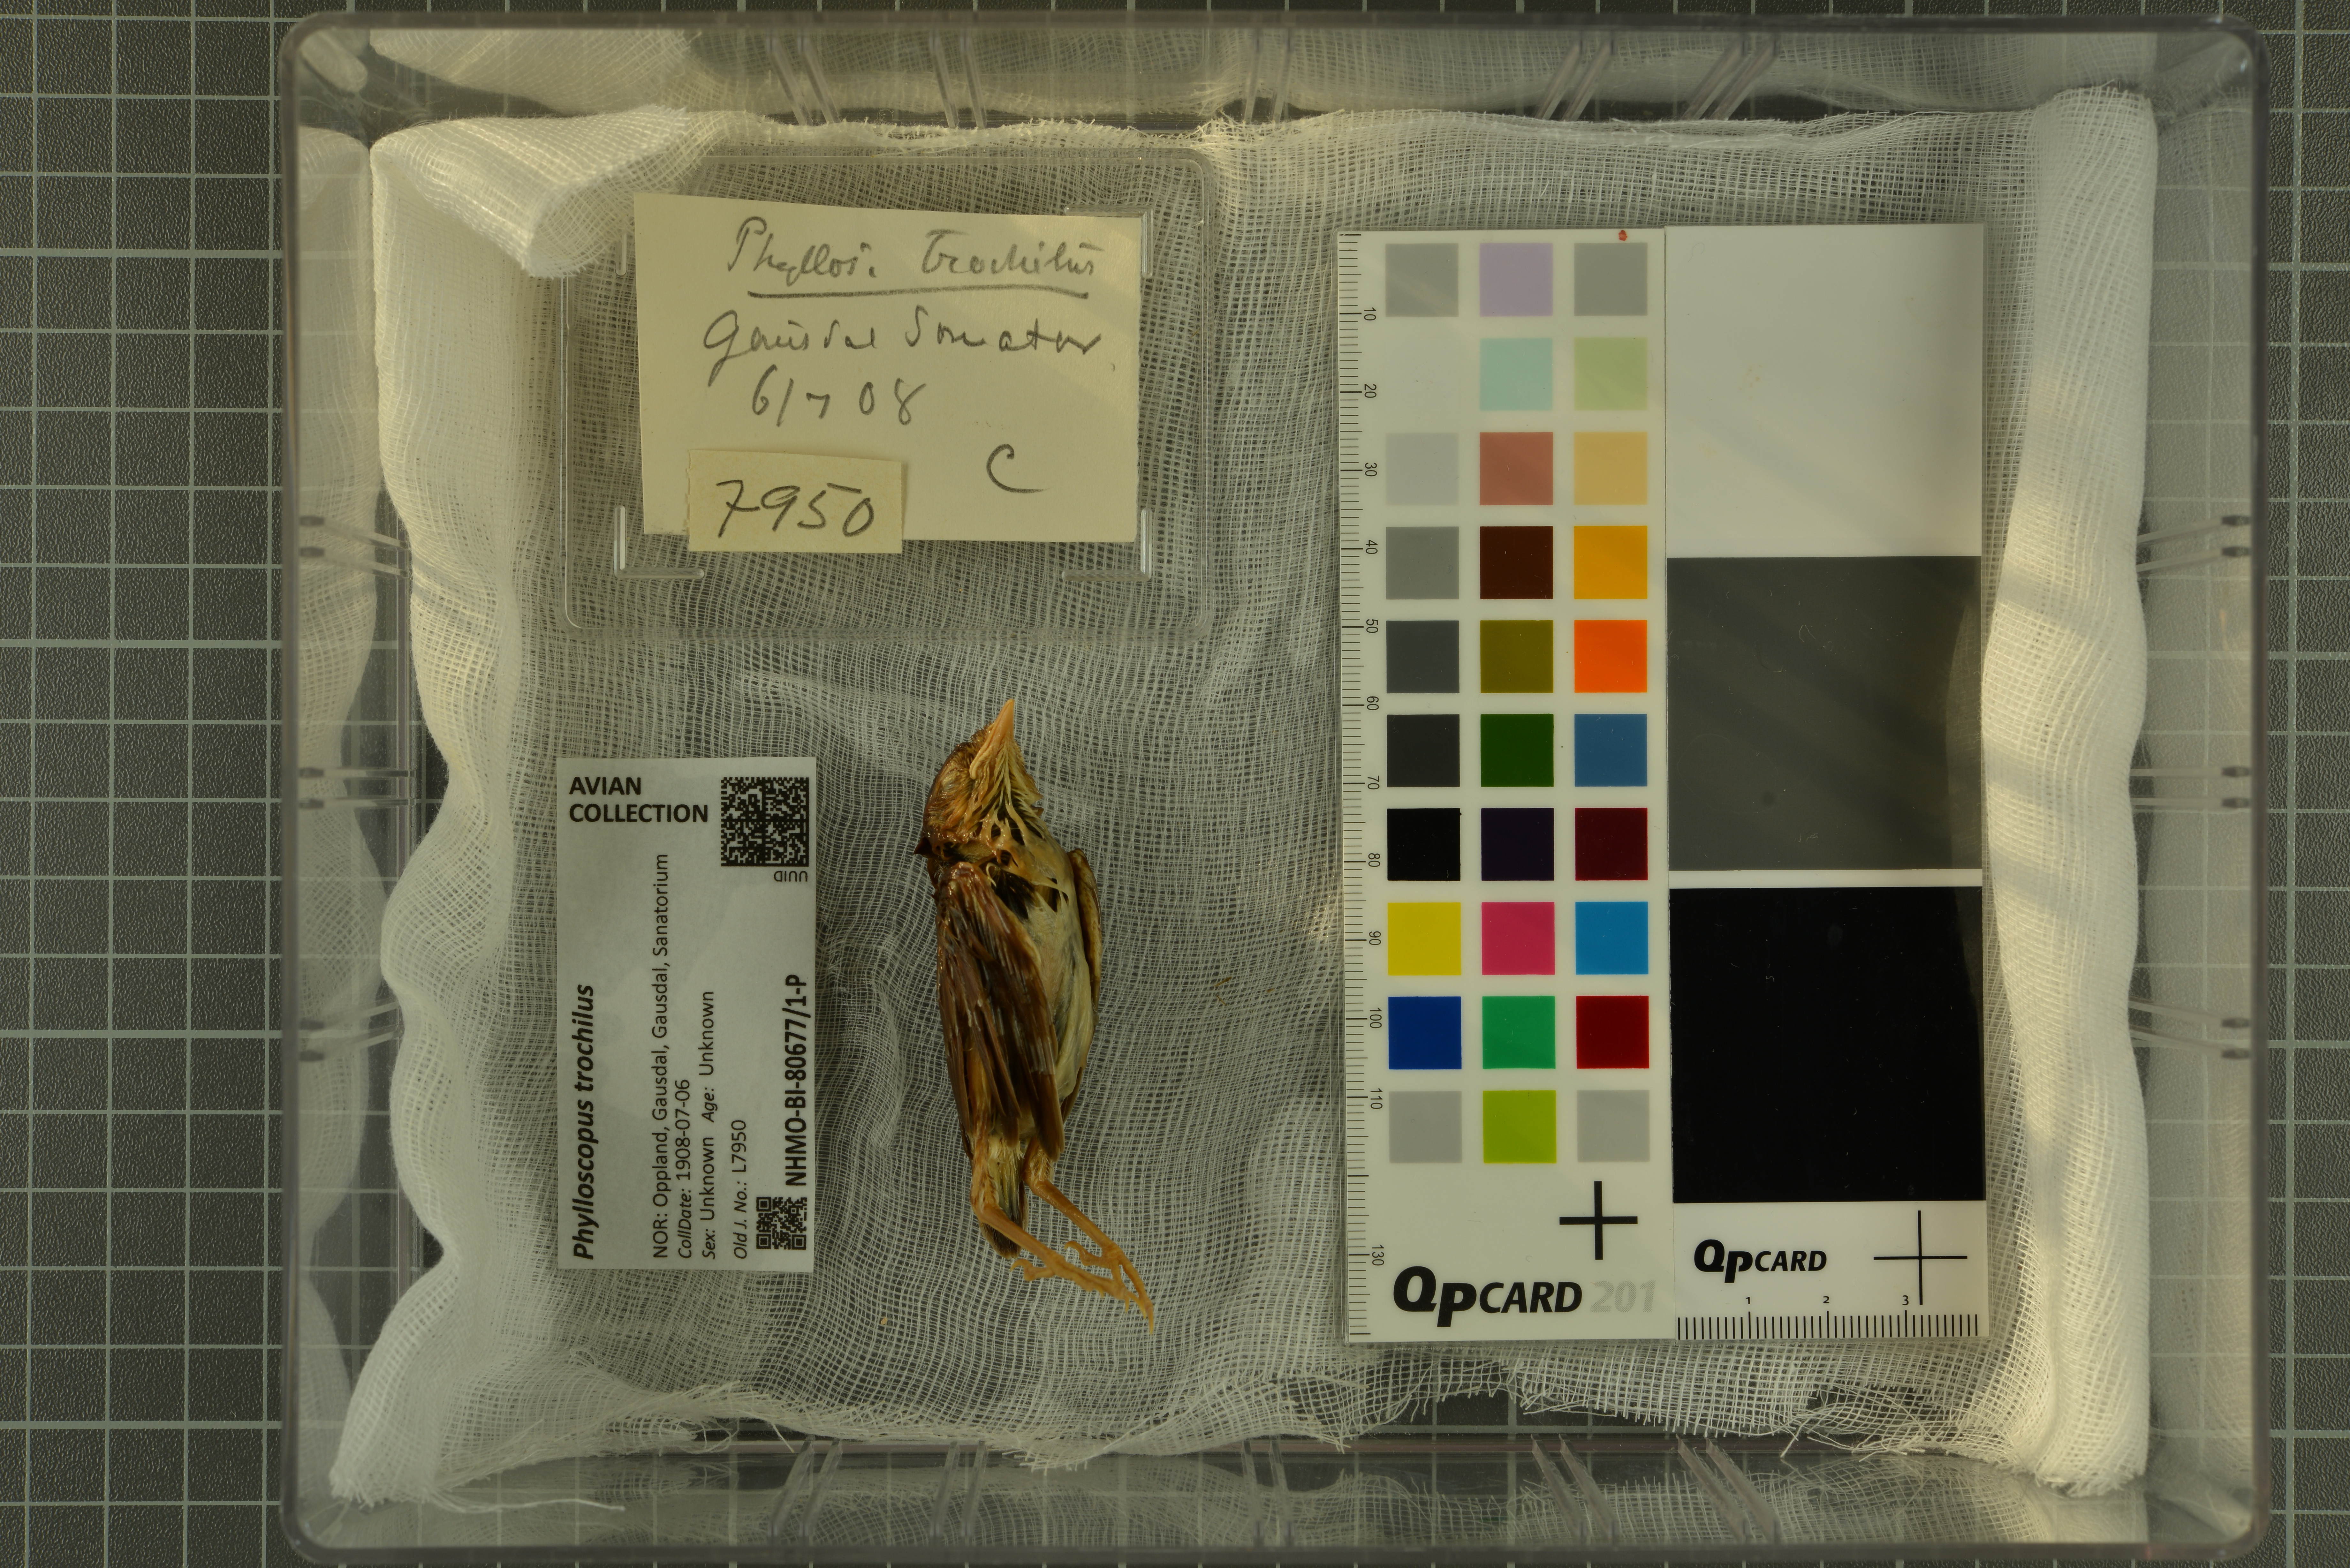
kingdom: Animalia
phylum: Chordata
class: Aves
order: Passeriformes
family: Phylloscopidae
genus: Phylloscopus
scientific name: Phylloscopus trochilus
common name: Willow warbler
